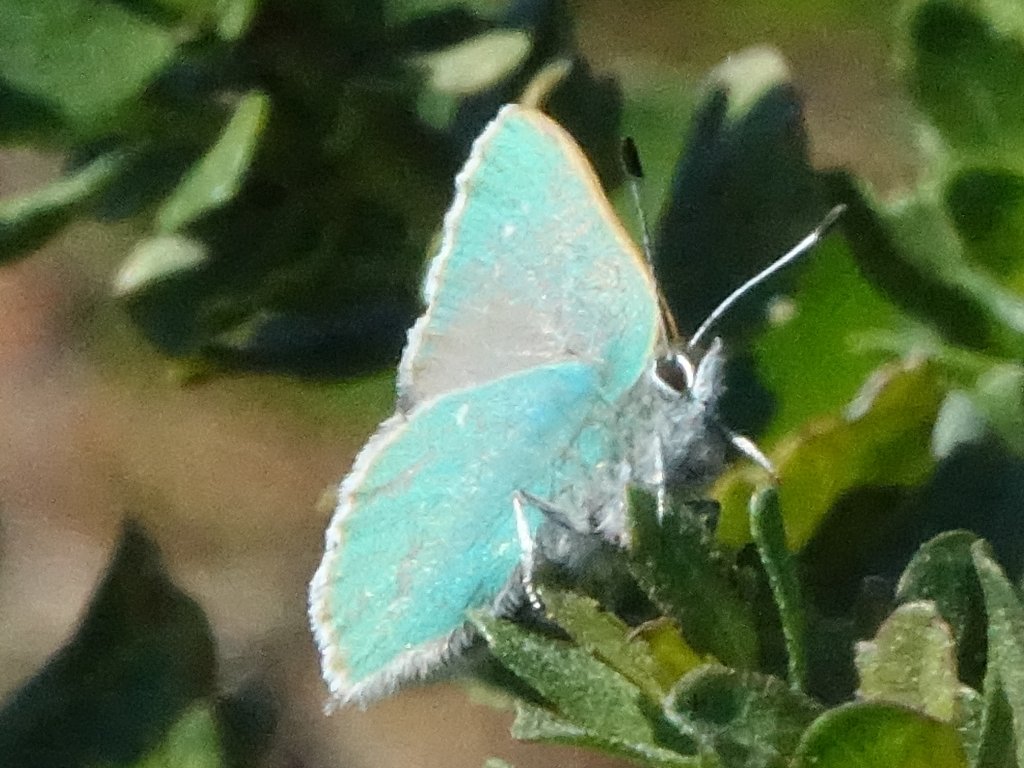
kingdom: Animalia
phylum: Arthropoda
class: Insecta
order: Lepidoptera
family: Lycaenidae
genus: Callophrys
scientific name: Callophrys dumetorum
